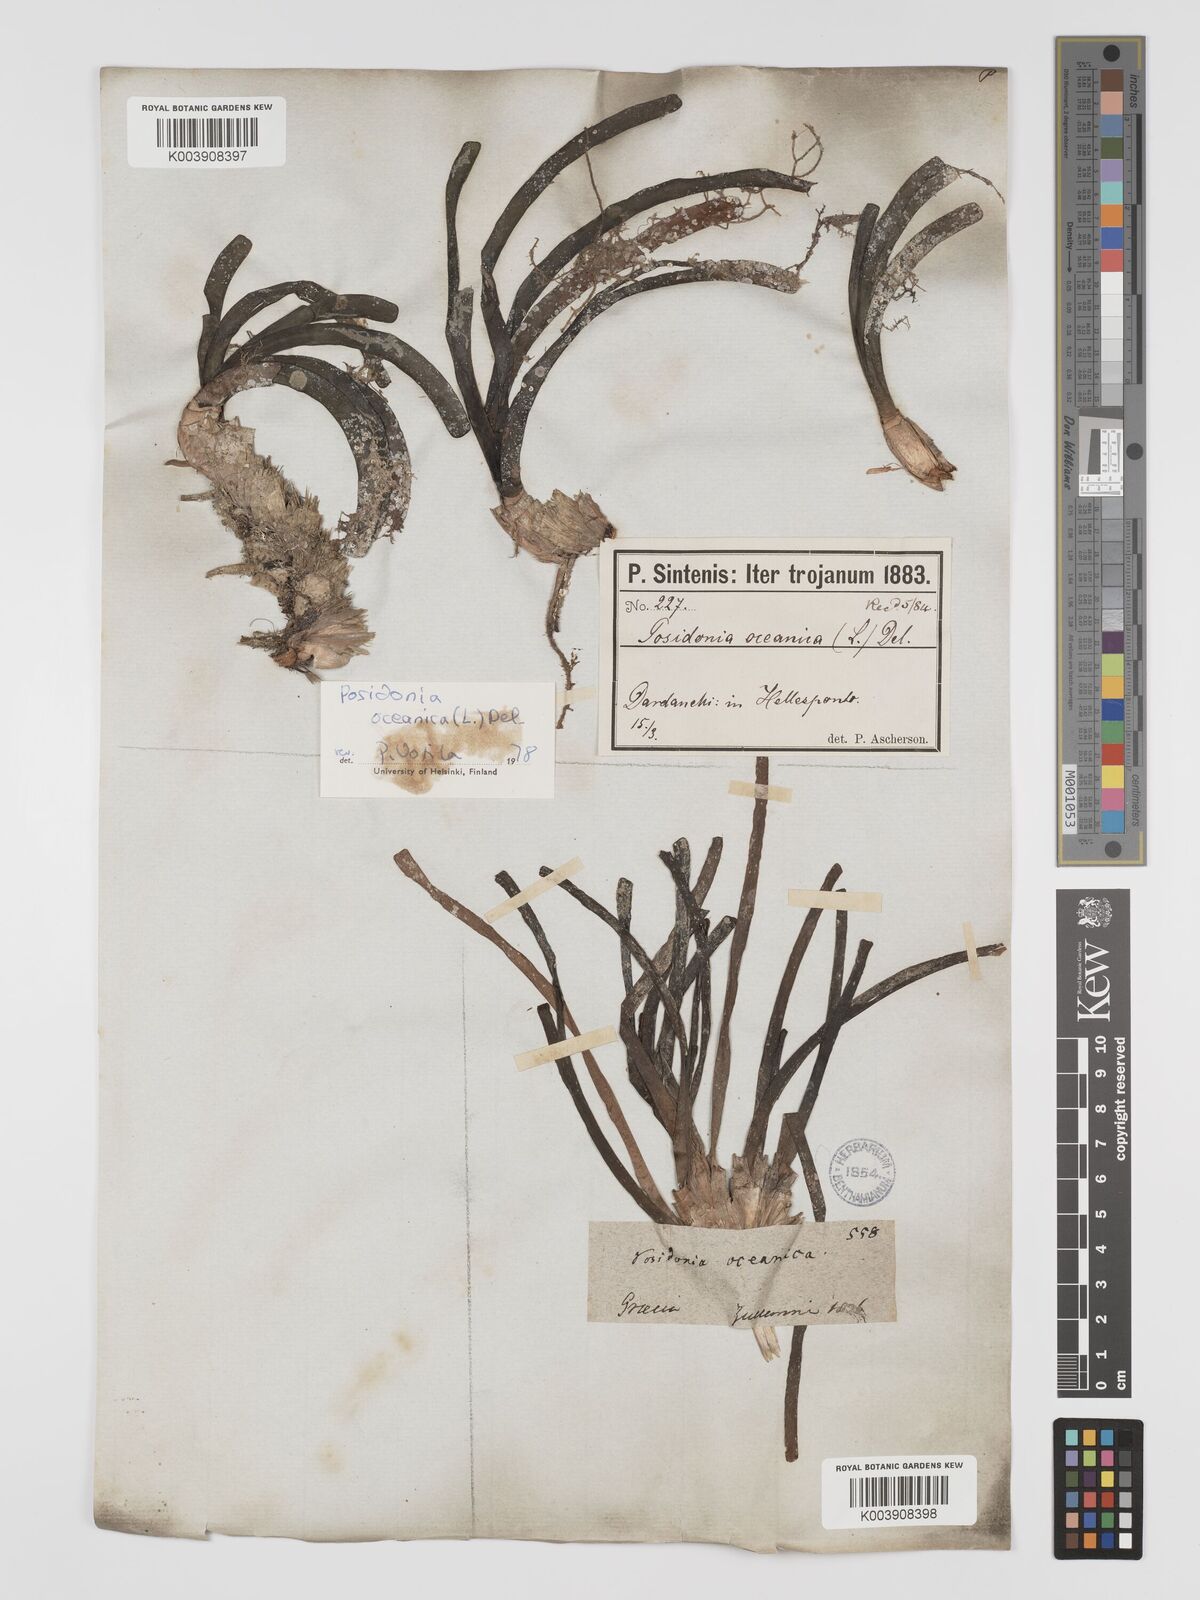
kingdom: Plantae
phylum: Tracheophyta
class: Liliopsida
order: Alismatales
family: Posidoniaceae
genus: Posidonia
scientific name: Posidonia
